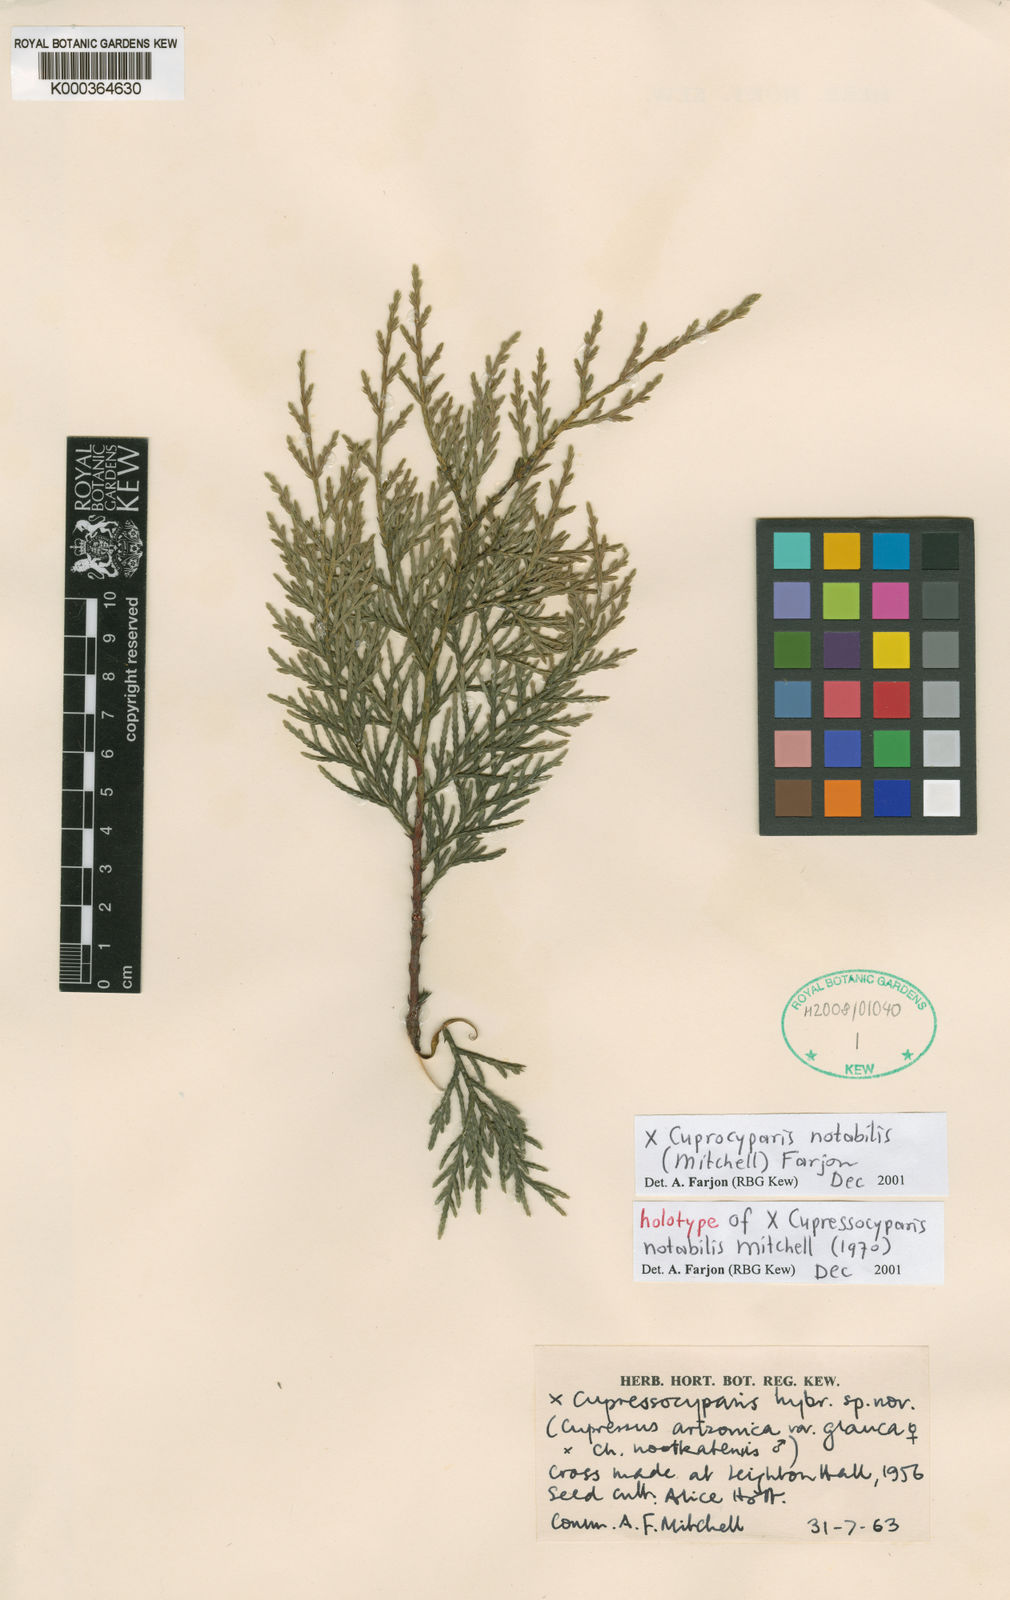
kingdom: Plantae
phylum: Tracheophyta
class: Pinopsida
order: Pinales
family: Cupressaceae
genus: Hesperotropsis
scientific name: Hesperotropsis notabilis
